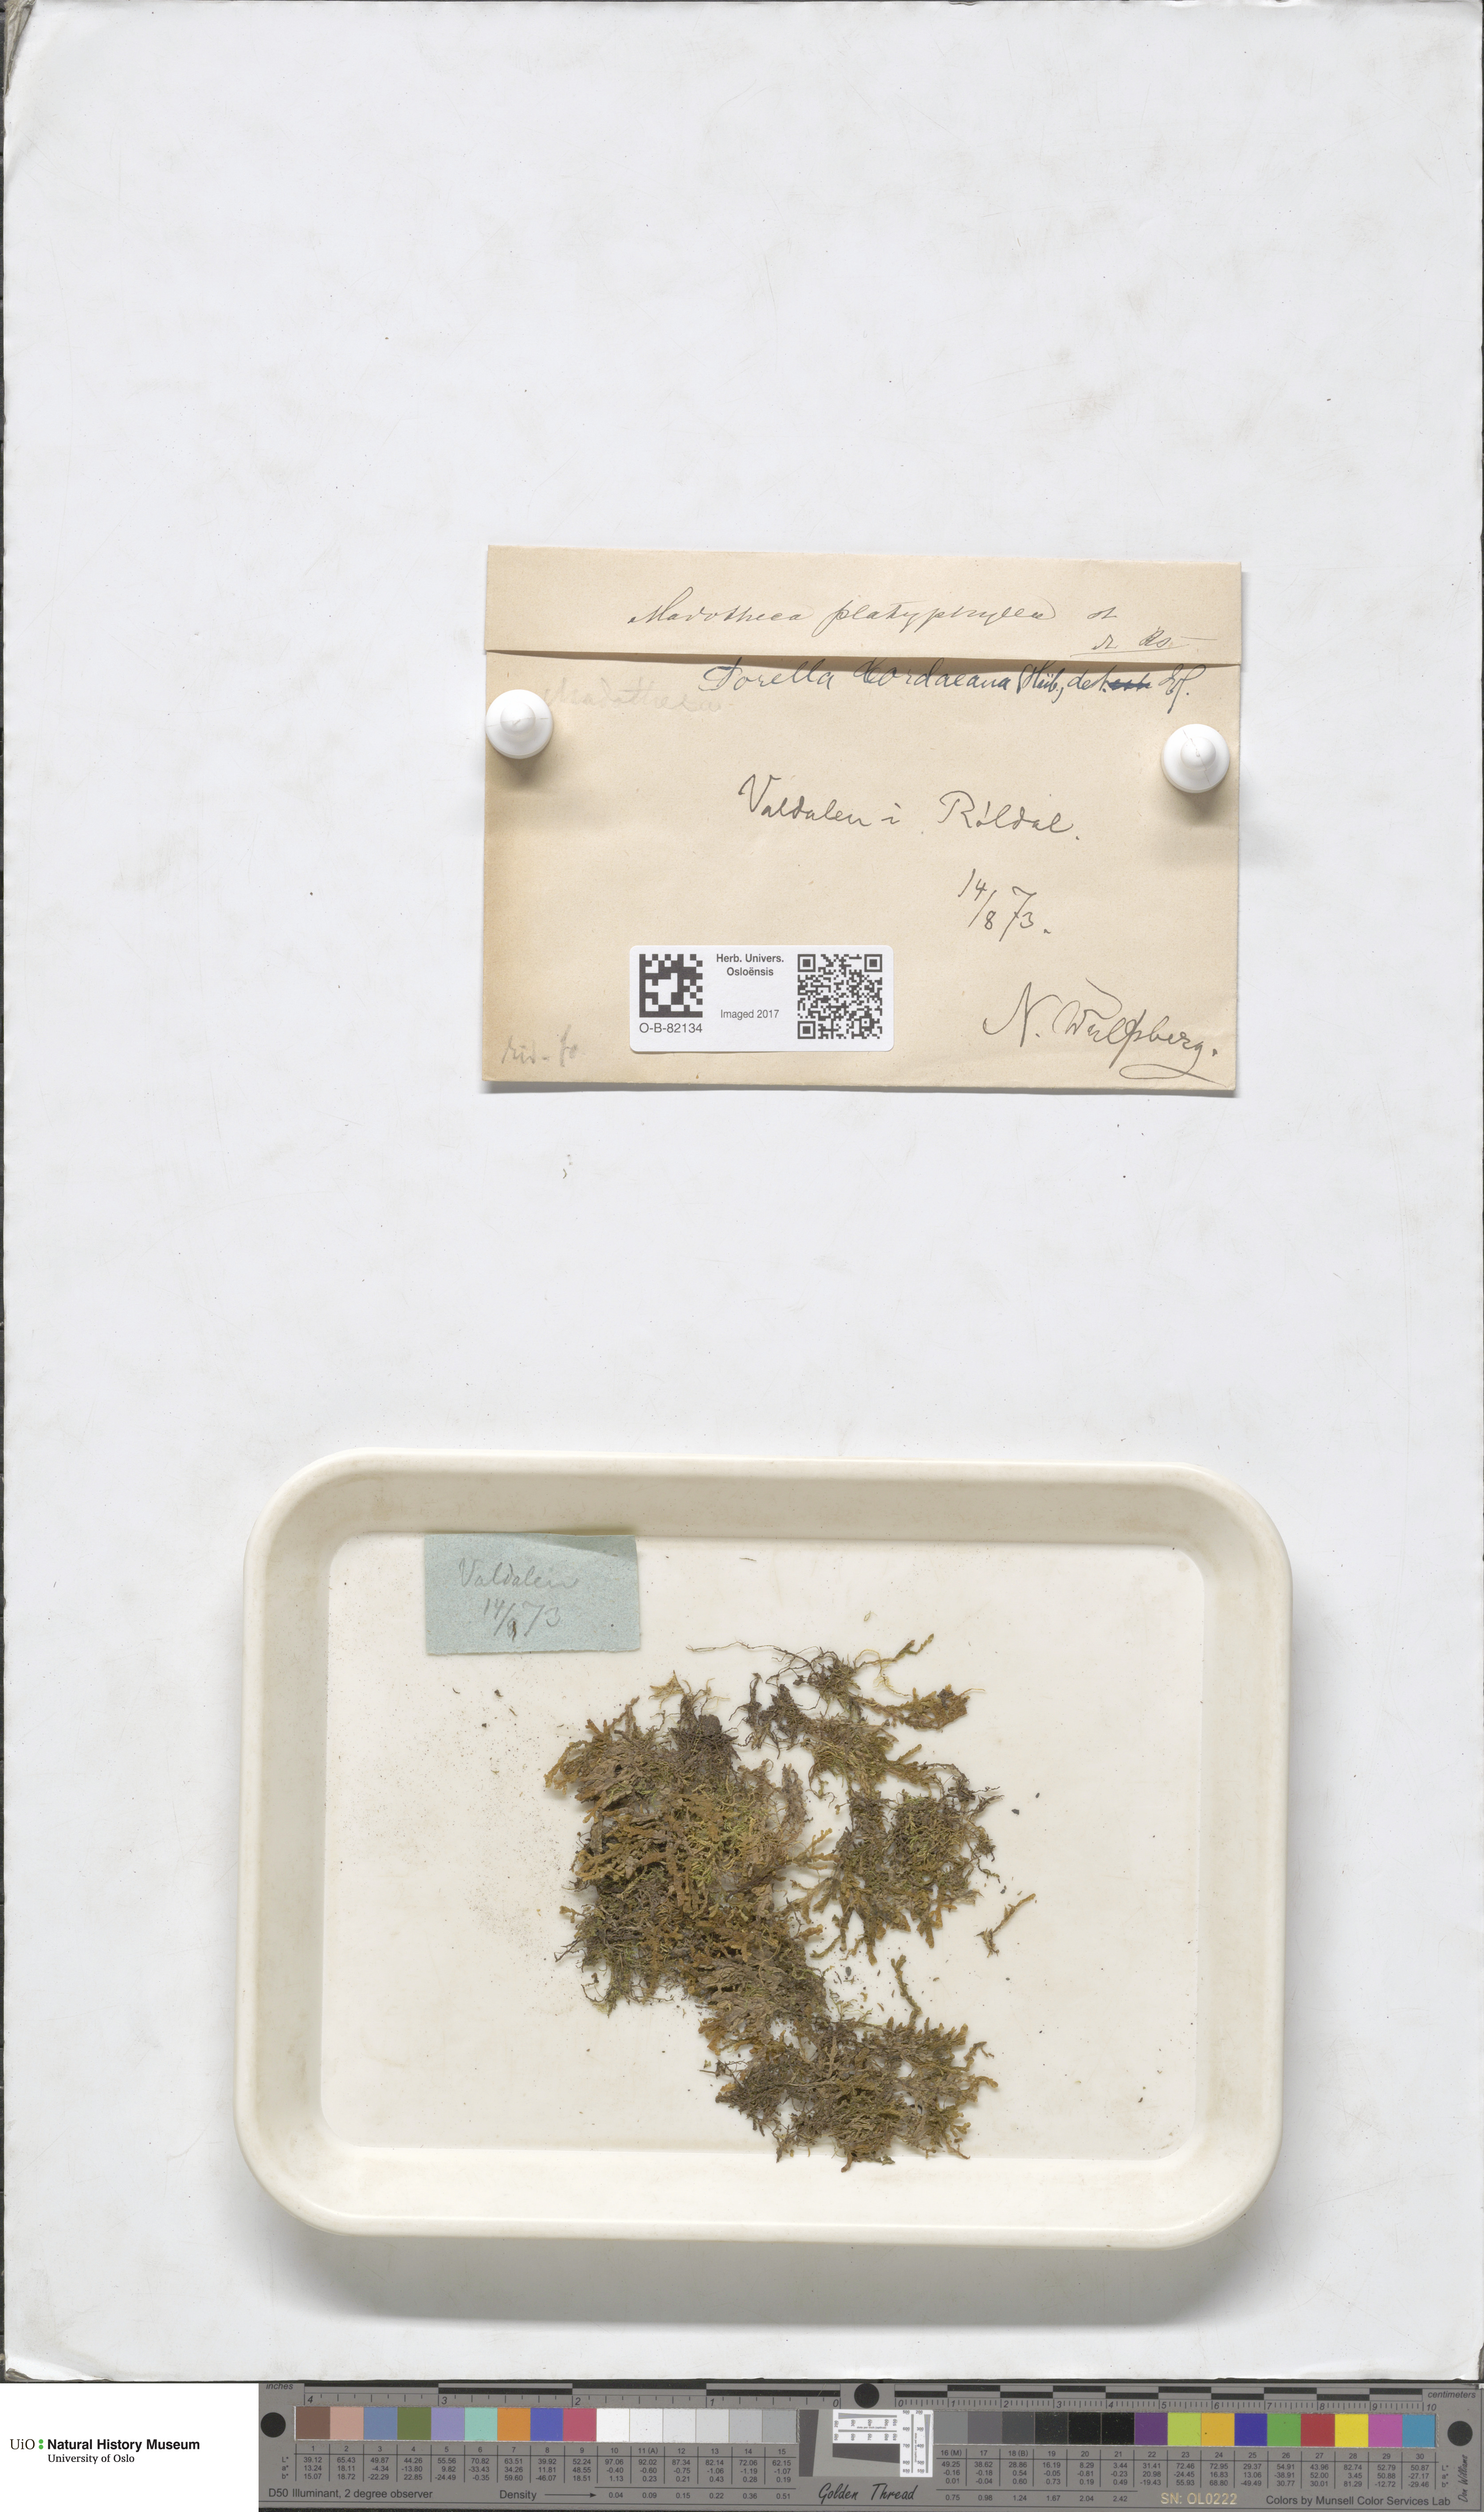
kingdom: Plantae
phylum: Marchantiophyta
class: Jungermanniopsida
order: Porellales
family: Porellaceae
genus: Porella
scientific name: Porella cordaeana
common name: Cliff scalewort
